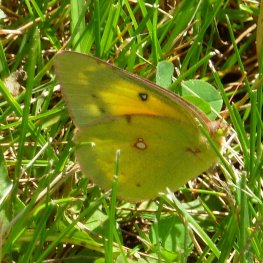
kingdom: Animalia
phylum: Arthropoda
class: Insecta
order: Lepidoptera
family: Pieridae
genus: Colias
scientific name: Colias eurytheme
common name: Orange Sulphur
